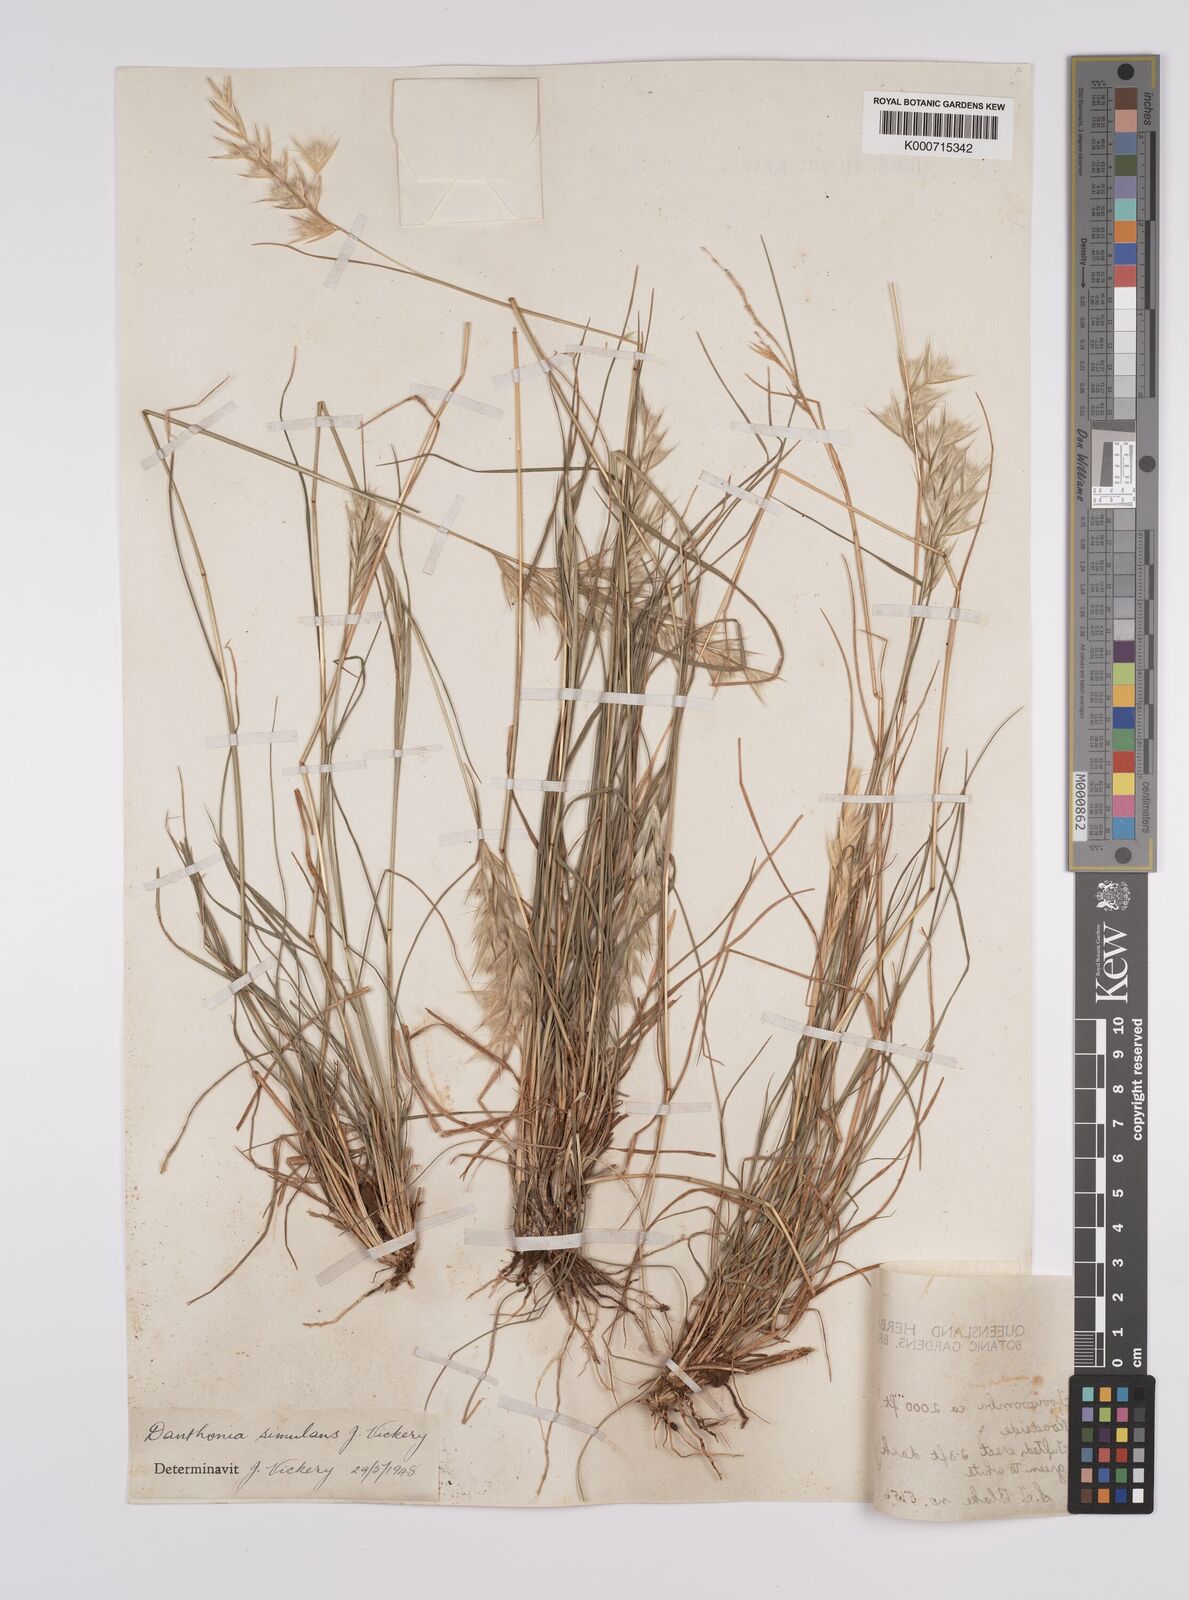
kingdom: Plantae
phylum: Tracheophyta
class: Liliopsida
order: Poales
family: Poaceae
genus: Rytidosperma
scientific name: Rytidosperma bipartitum
